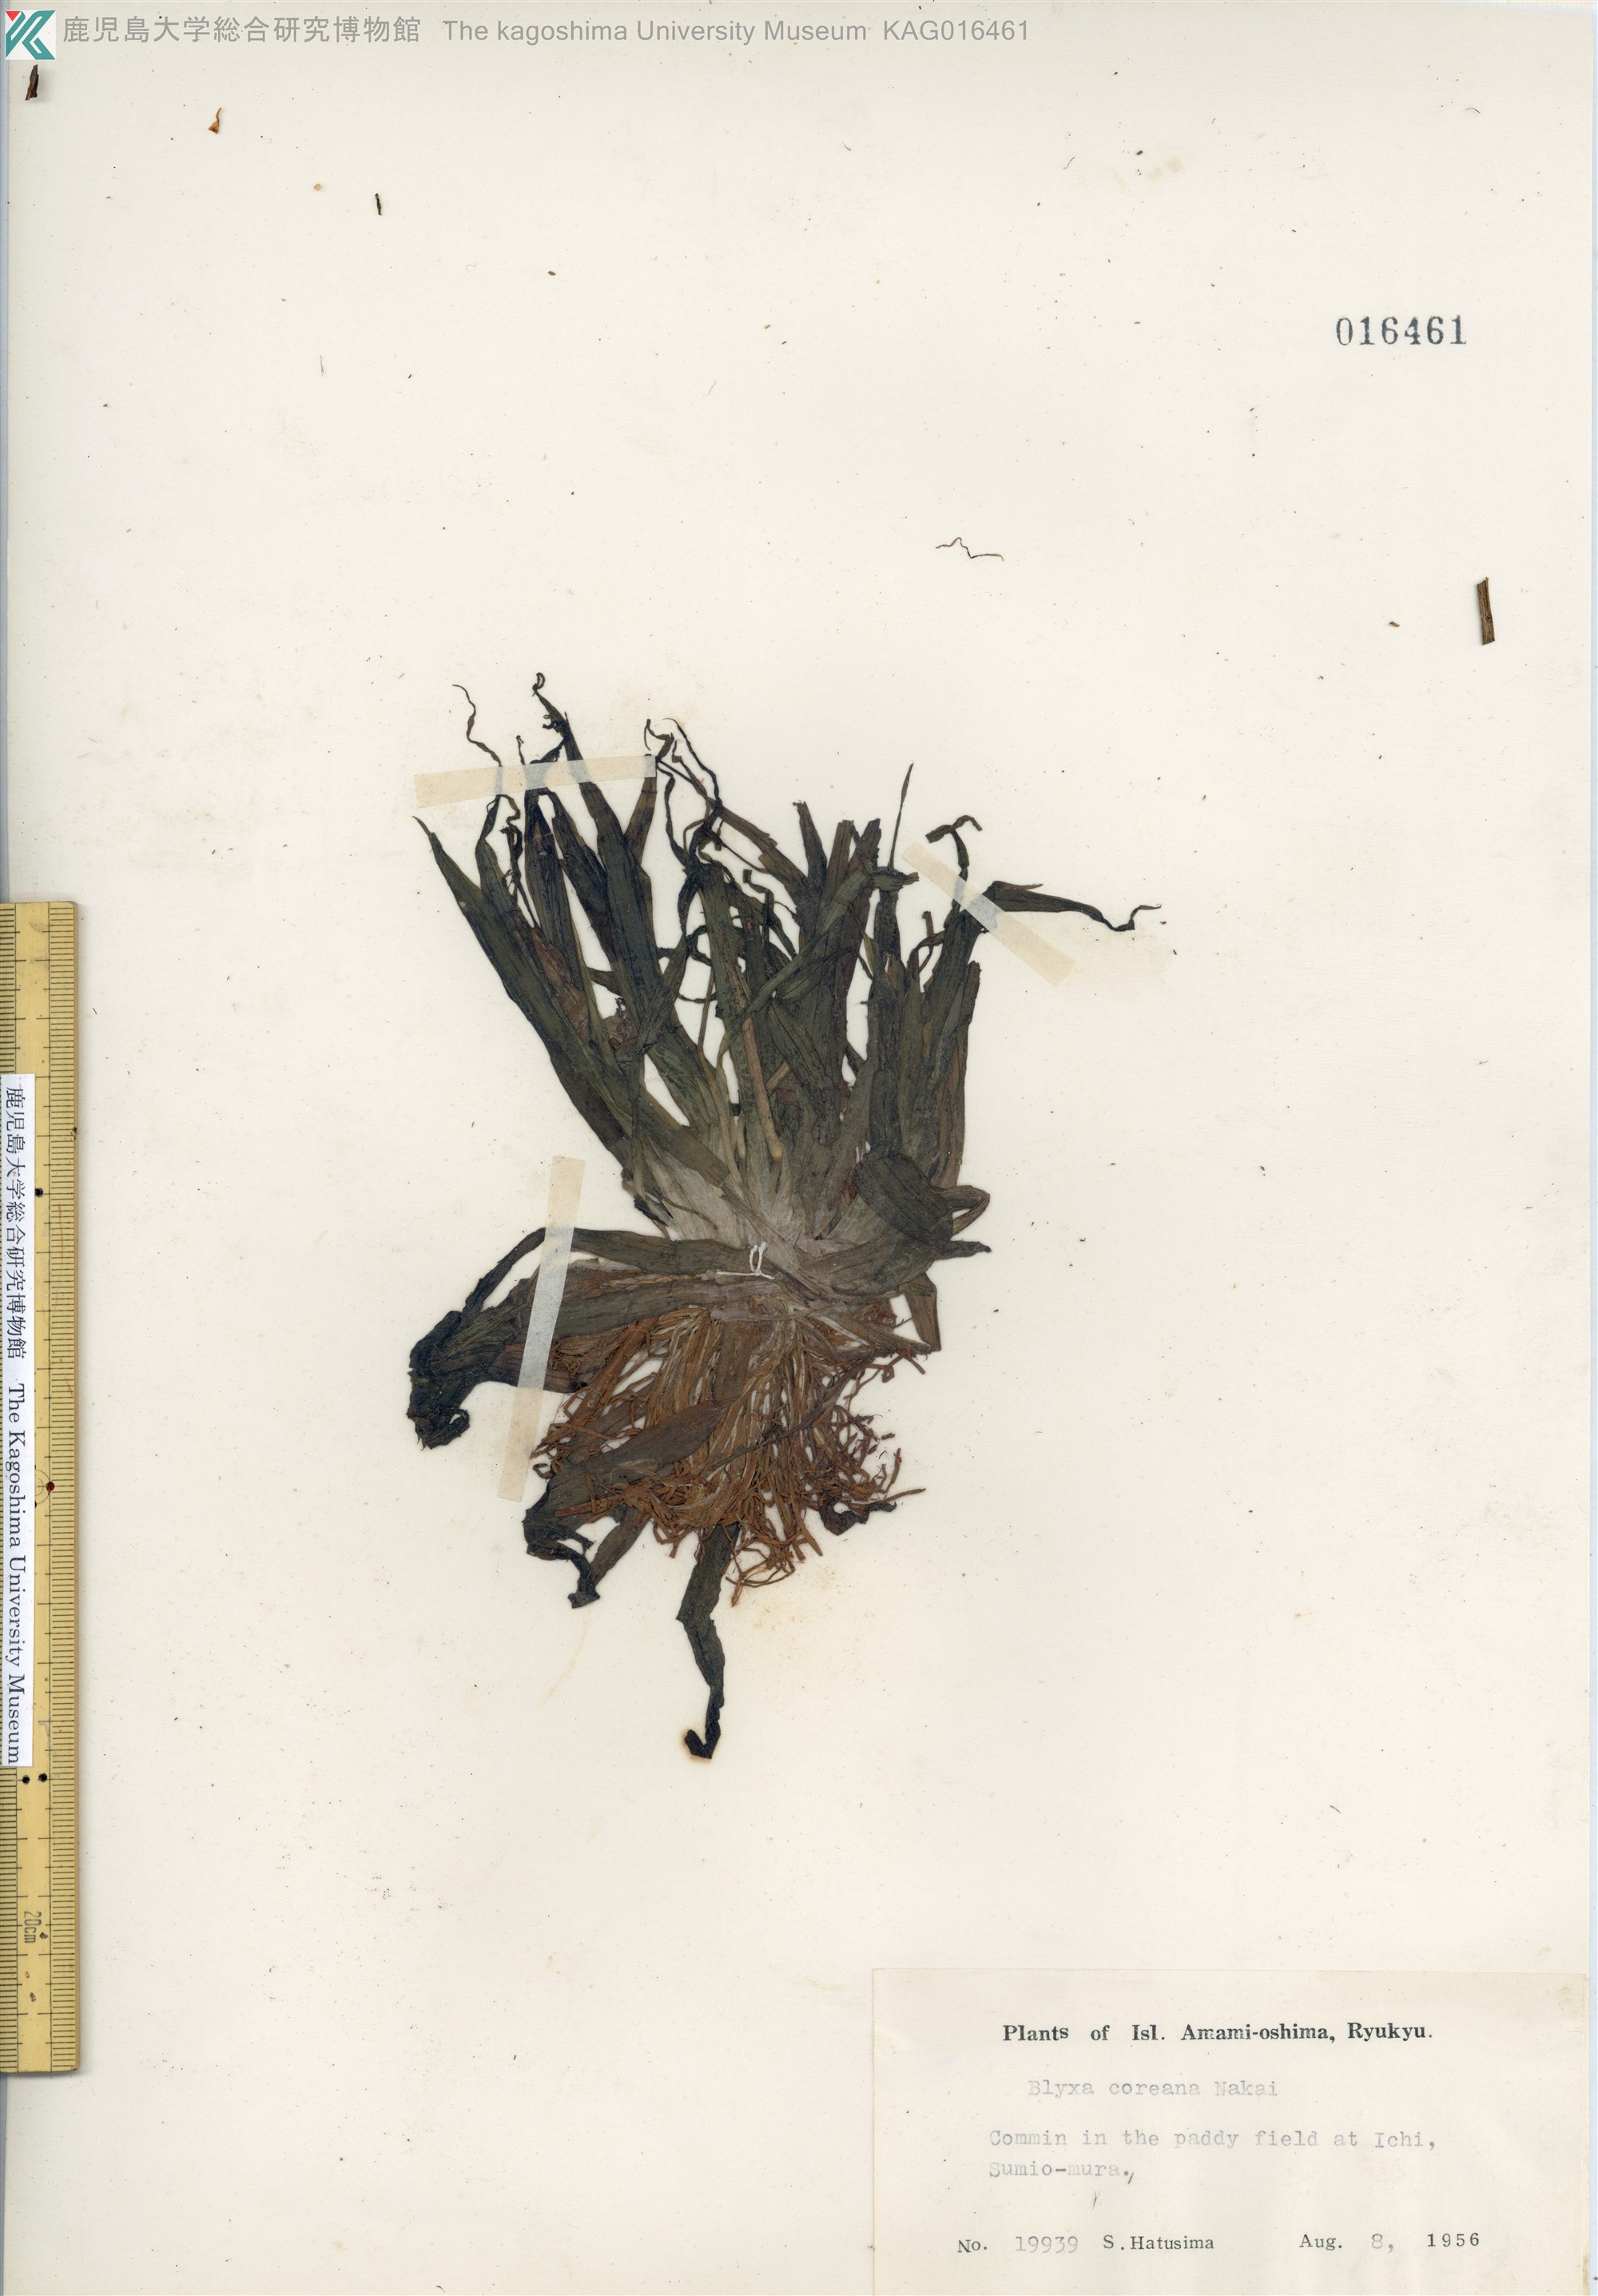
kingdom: Plantae
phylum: Tracheophyta
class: Liliopsida
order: Alismatales
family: Hydrocharitaceae
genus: Blyxa
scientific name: Blyxa aubertii
